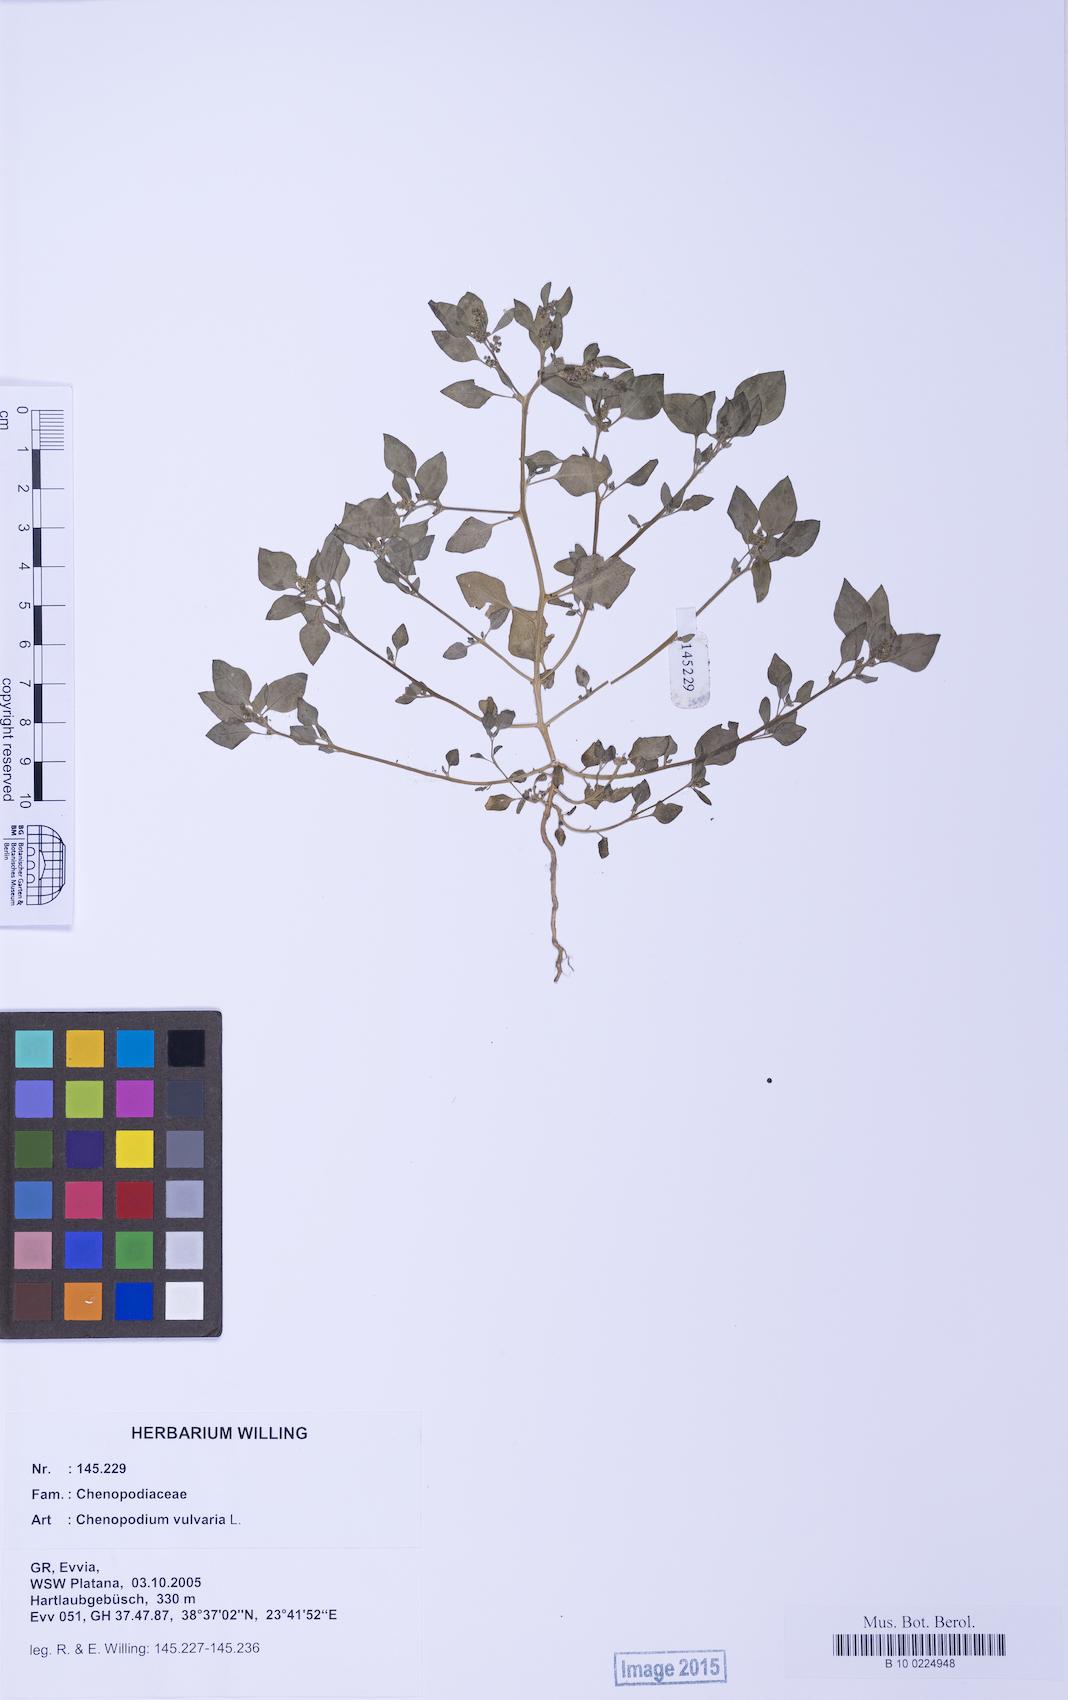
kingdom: Plantae
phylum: Tracheophyta
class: Magnoliopsida
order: Caryophyllales
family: Amaranthaceae
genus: Chenopodium
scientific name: Chenopodium vulvaria
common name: Stinking goosefoot
